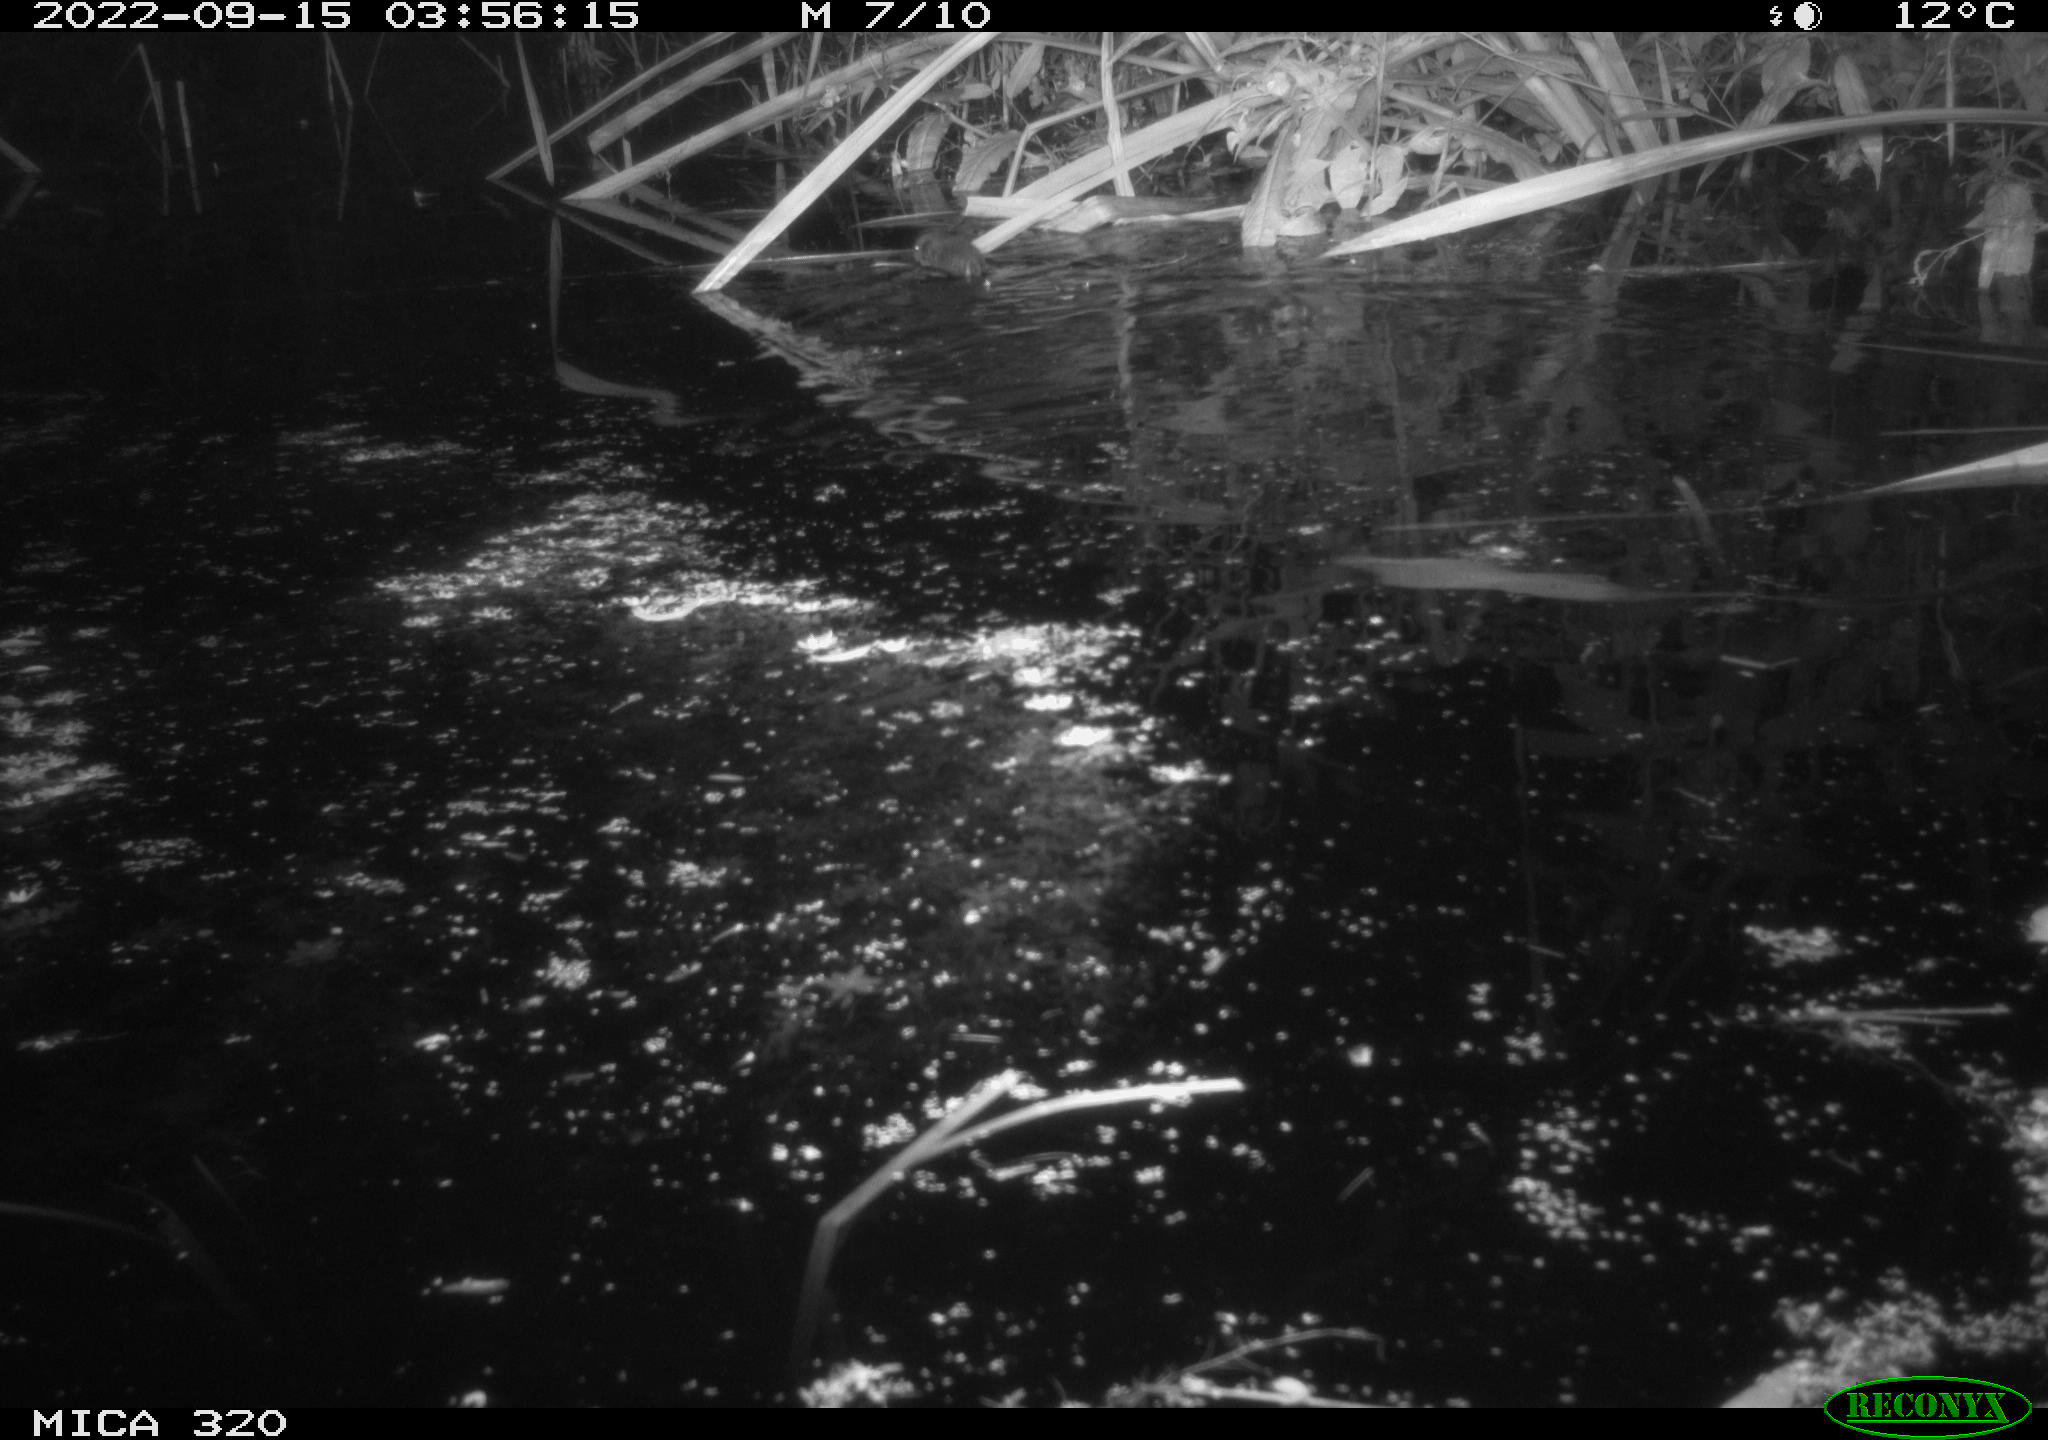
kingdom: Animalia
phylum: Chordata
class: Mammalia
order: Rodentia
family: Muridae
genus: Rattus
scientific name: Rattus norvegicus
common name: Brown rat
